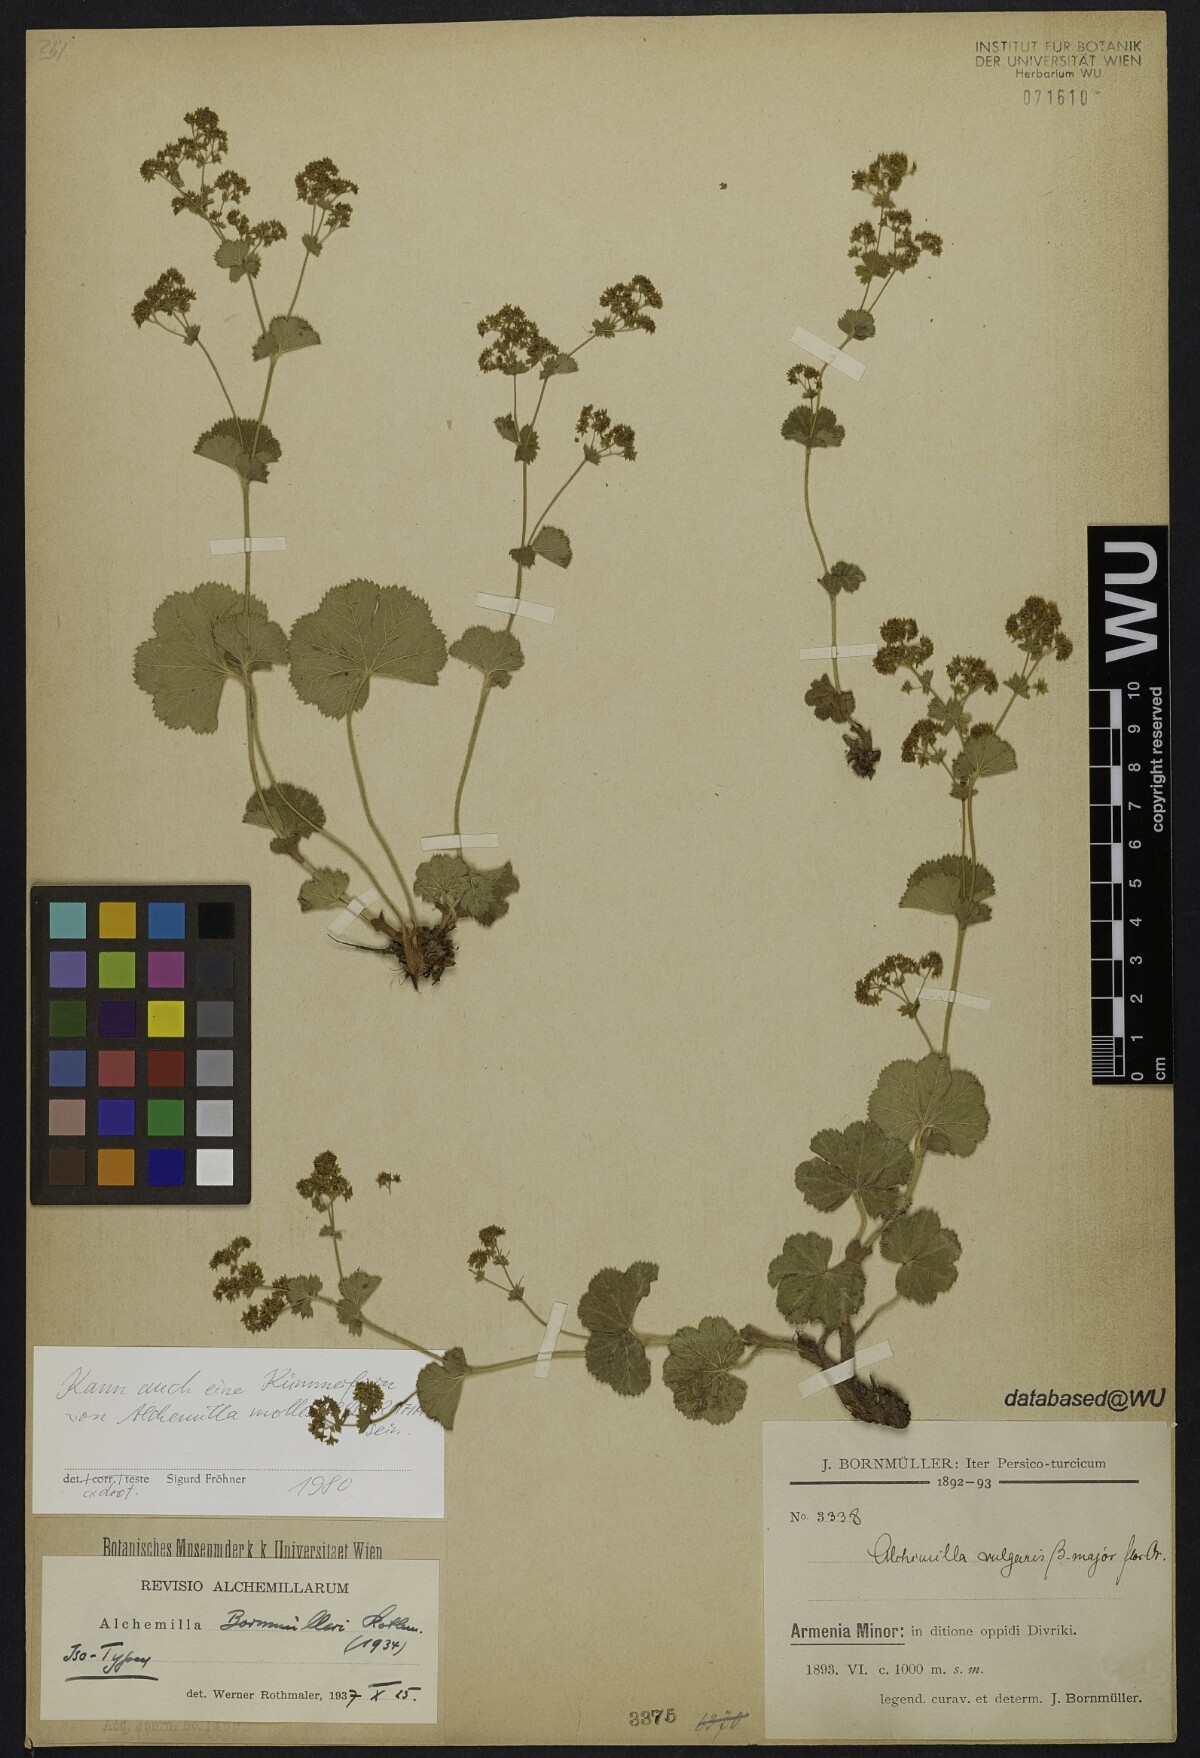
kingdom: Plantae
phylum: Tracheophyta
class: Magnoliopsida
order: Rosales
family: Rosaceae
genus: Alchemilla
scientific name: Alchemilla bornmuelleri
